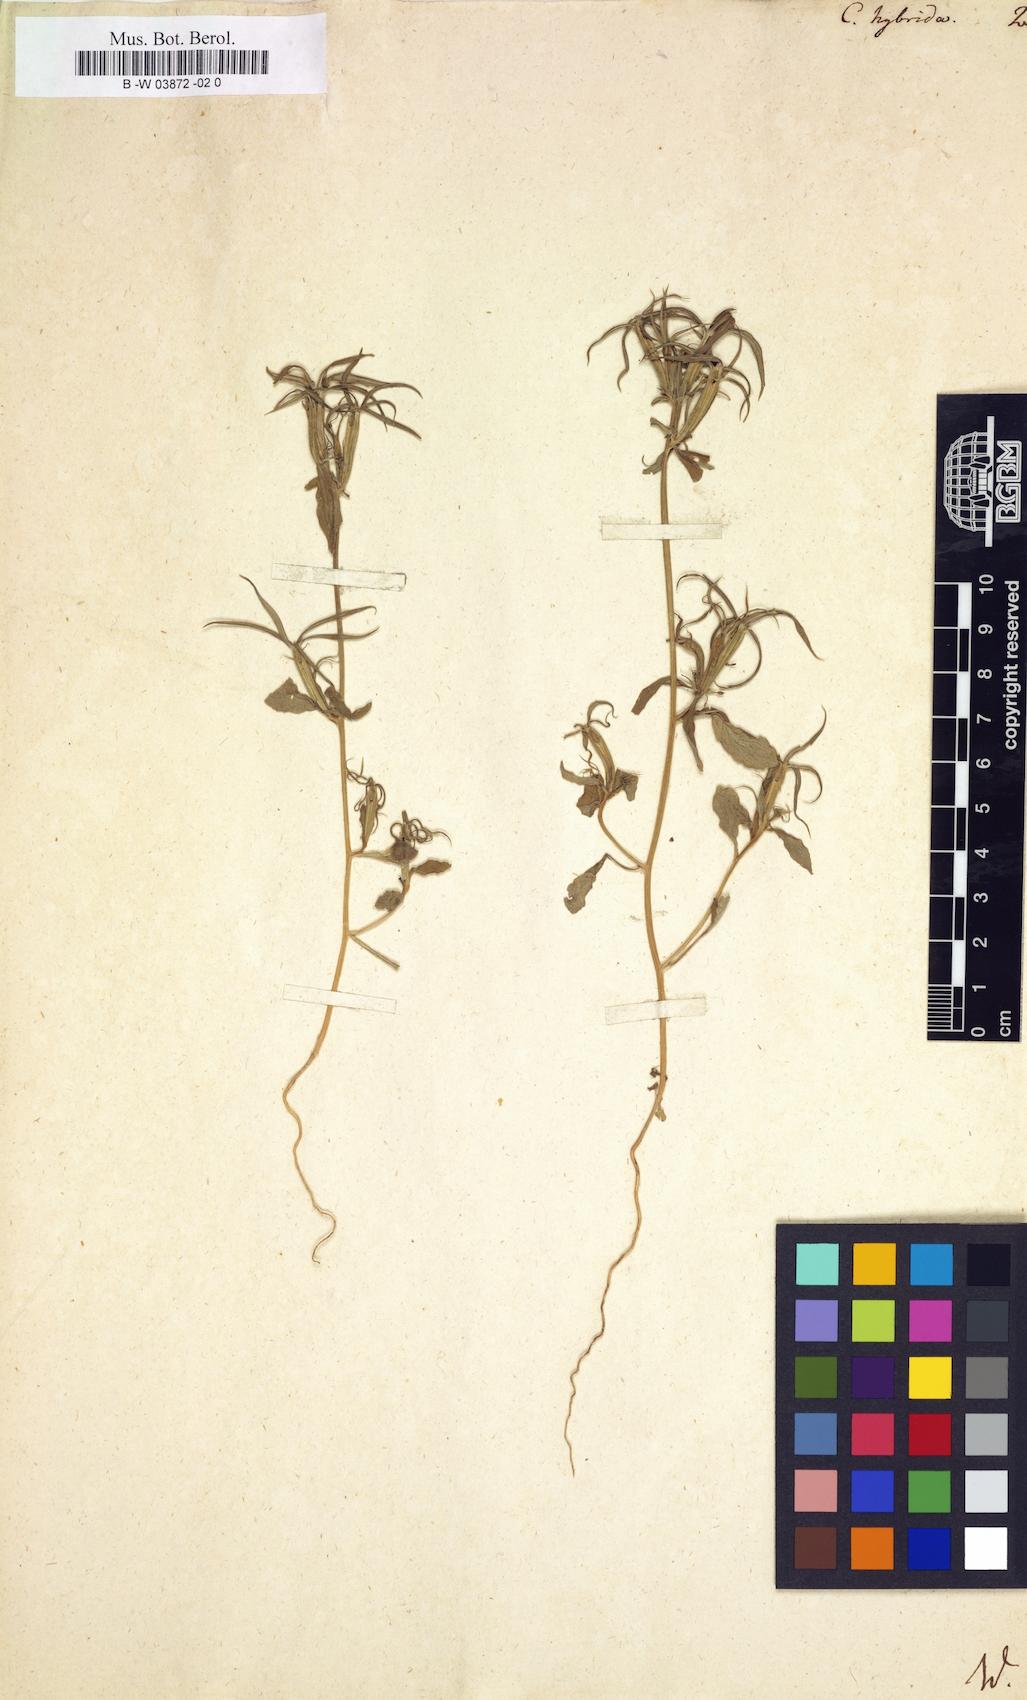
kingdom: Plantae
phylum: Tracheophyta
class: Magnoliopsida
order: Asterales
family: Campanulaceae
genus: Legousia
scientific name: Legousia hybrida
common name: Venus's-looking-glass
